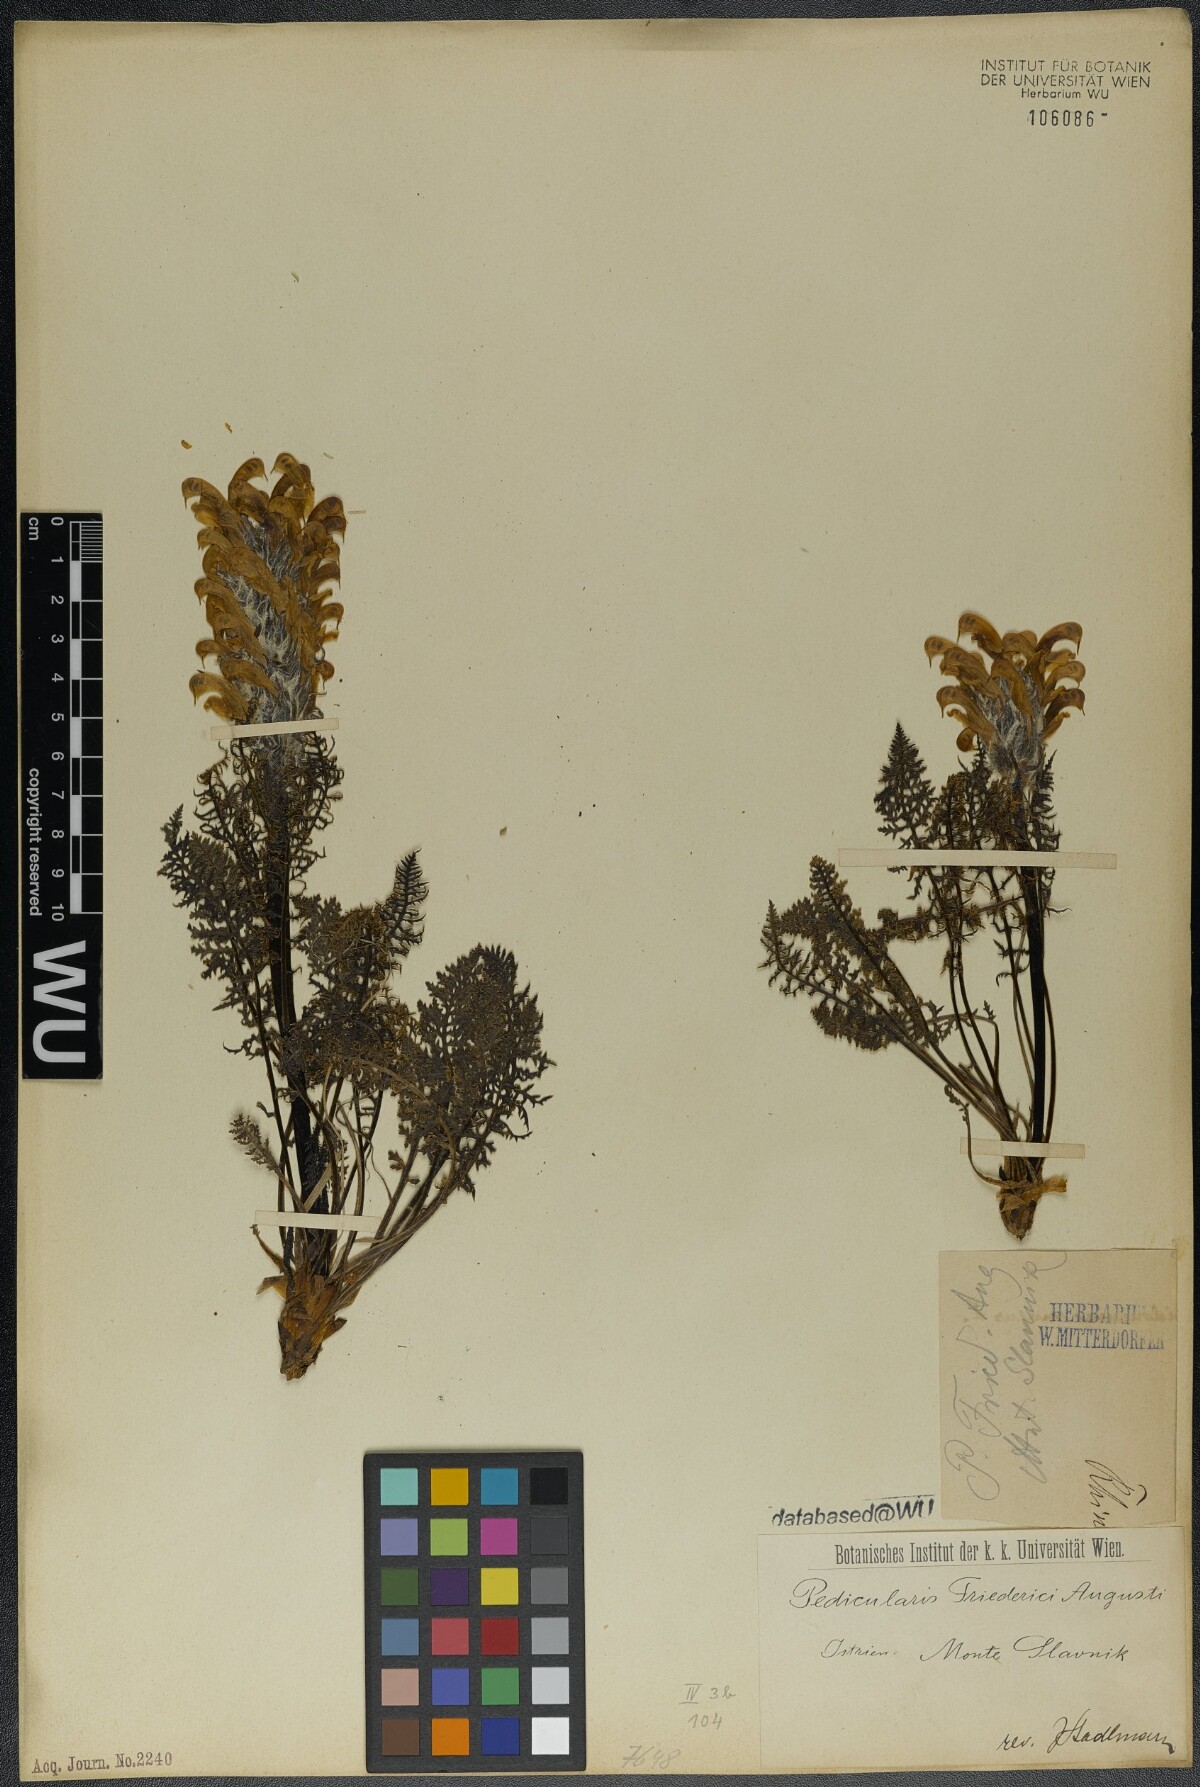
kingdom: Plantae
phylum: Tracheophyta
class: Magnoliopsida
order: Lamiales
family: Orobanchaceae
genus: Pedicularis
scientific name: Pedicularis friderici-augusti
